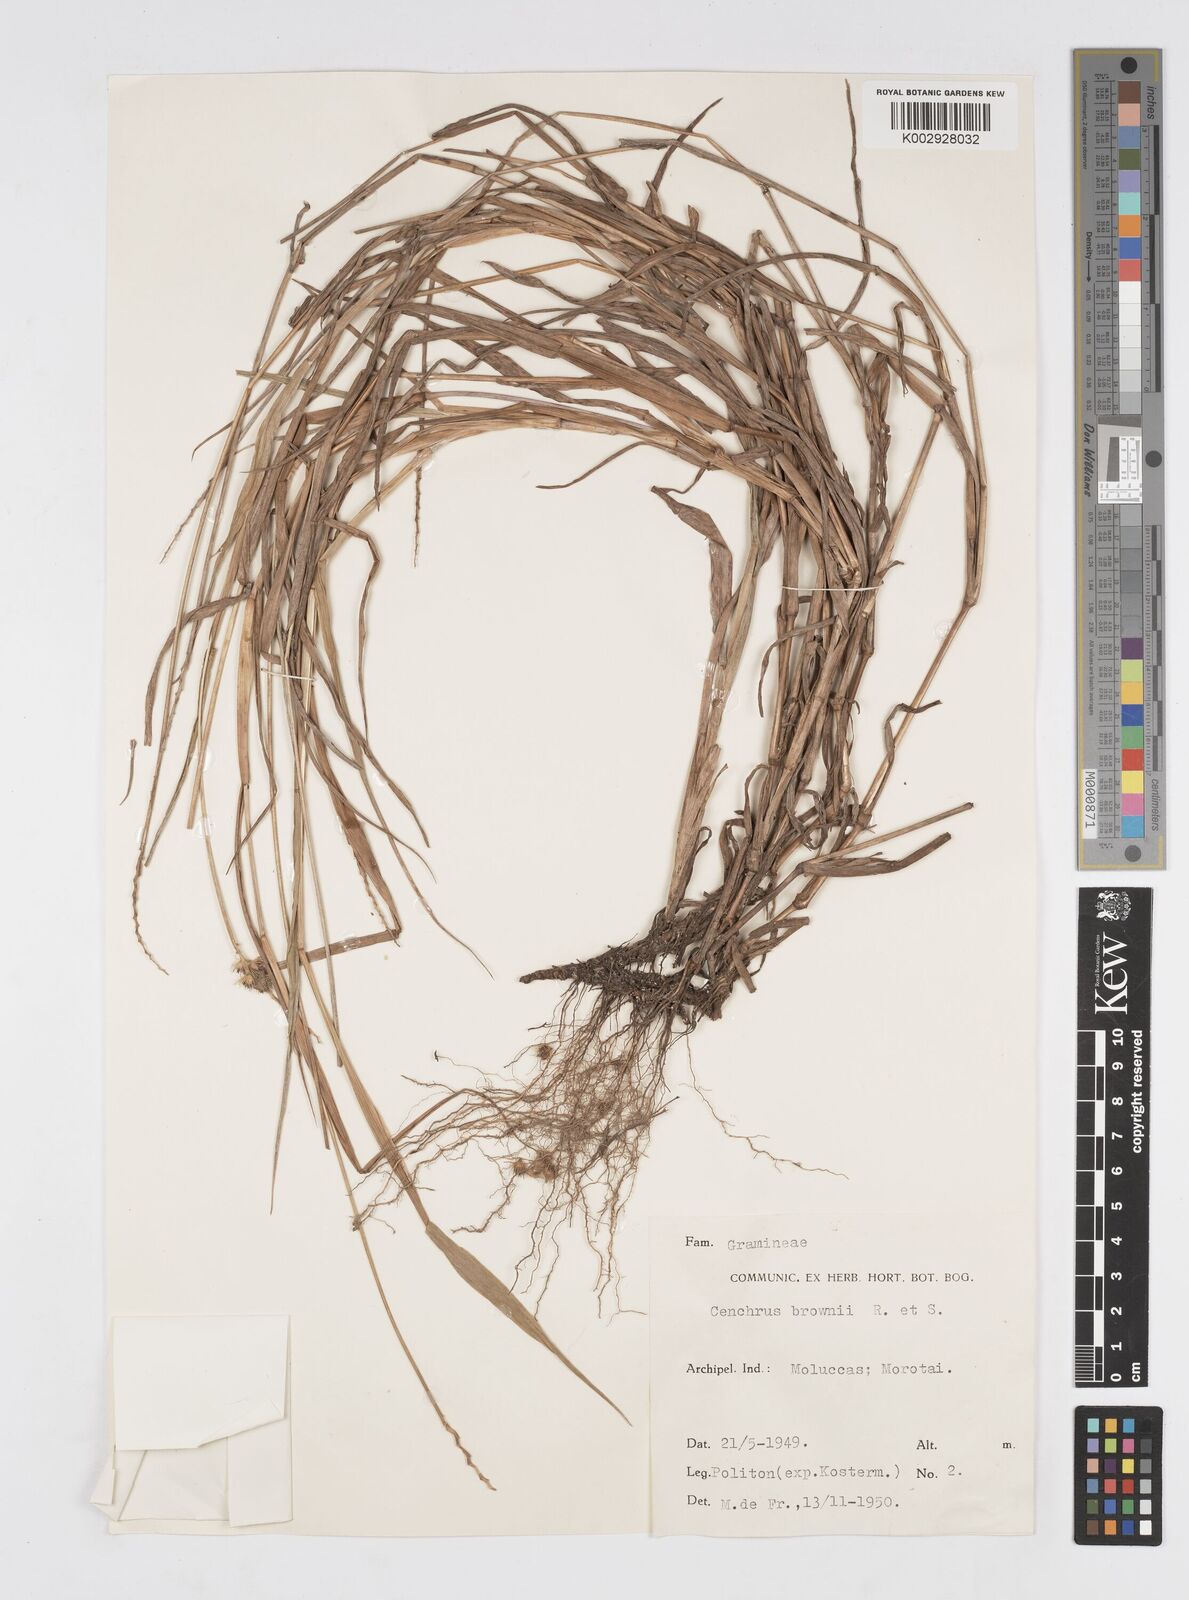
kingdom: Plantae
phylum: Tracheophyta
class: Liliopsida
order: Poales
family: Poaceae
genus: Cenchrus
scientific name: Cenchrus brownii
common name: Slim-bristle sandbur
